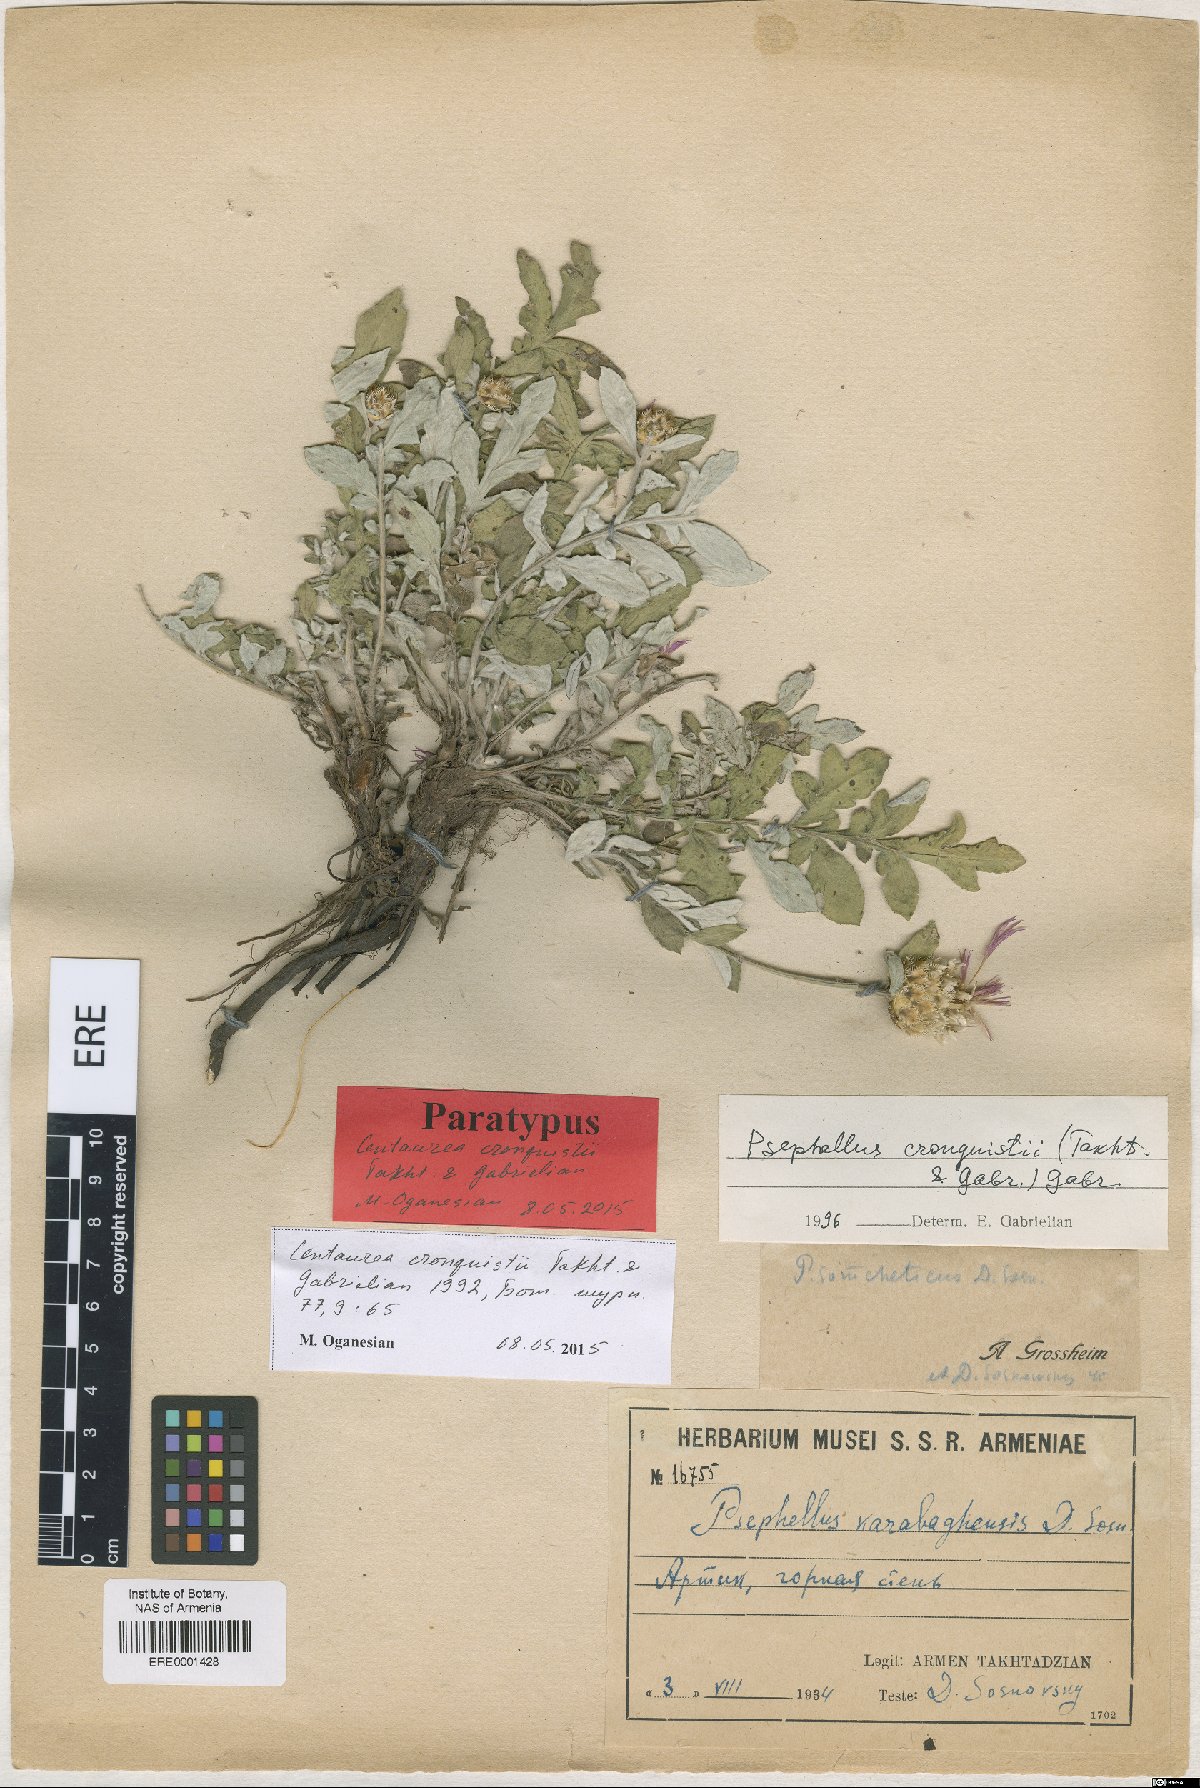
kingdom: Plantae
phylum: Tracheophyta
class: Magnoliopsida
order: Asterales
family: Asteraceae
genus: Psephellus
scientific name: Psephellus cronquistii
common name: Cronquists's cornflower
